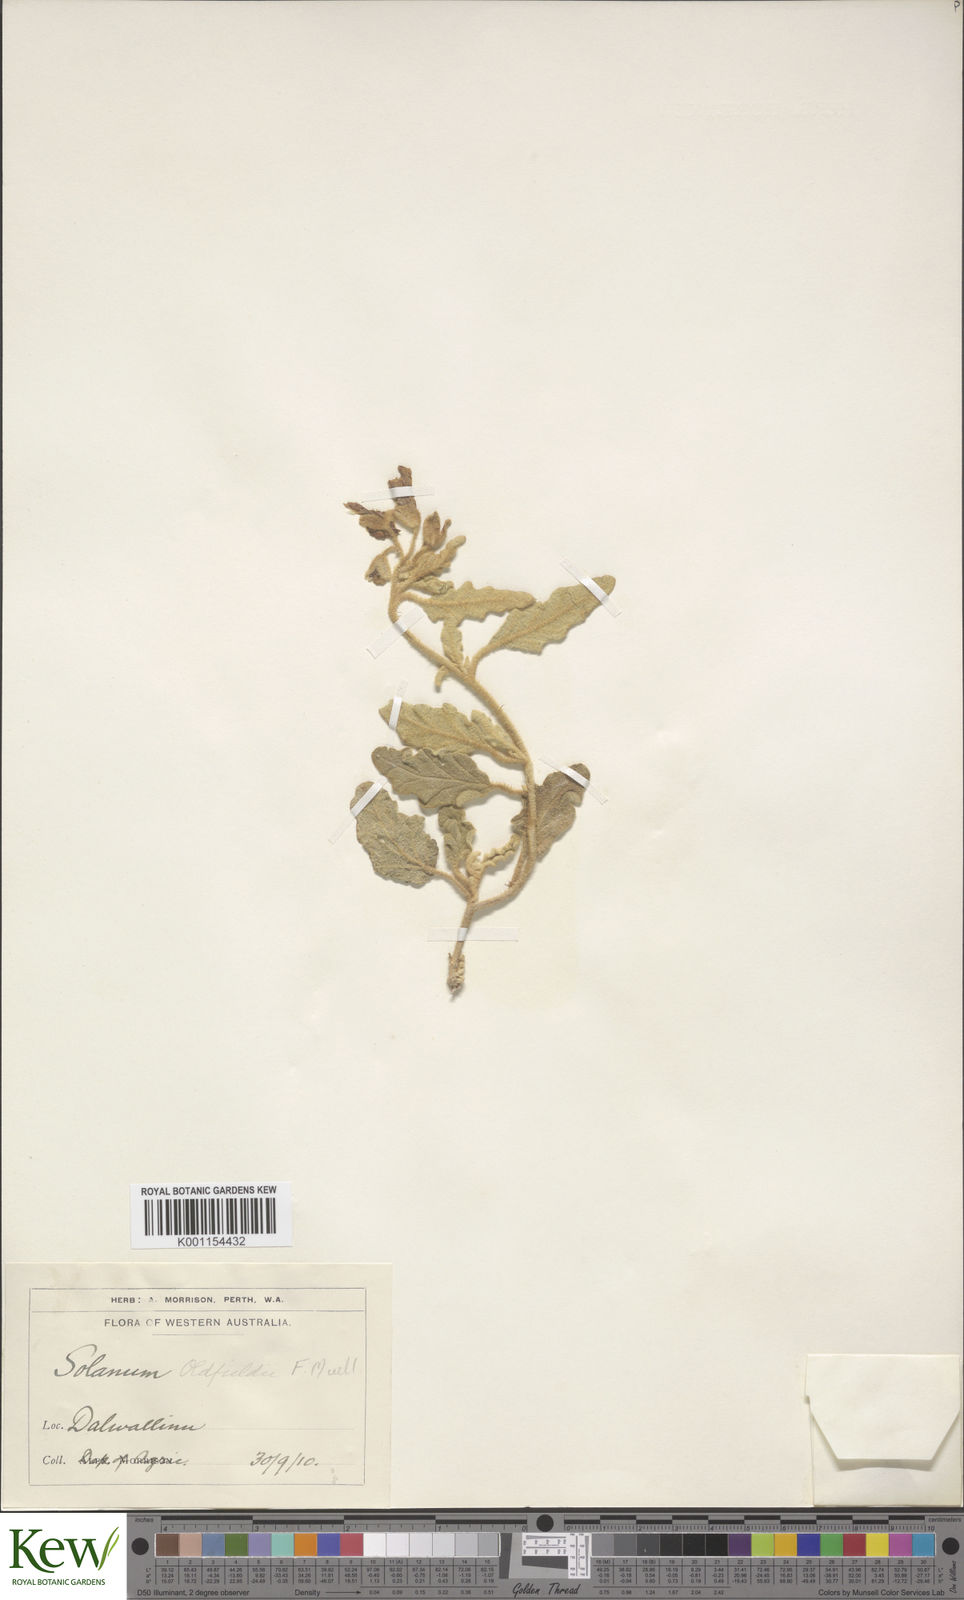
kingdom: Plantae
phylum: Tracheophyta
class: Magnoliopsida
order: Solanales
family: Solanaceae
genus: Solanum
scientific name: Solanum oldfieldii
